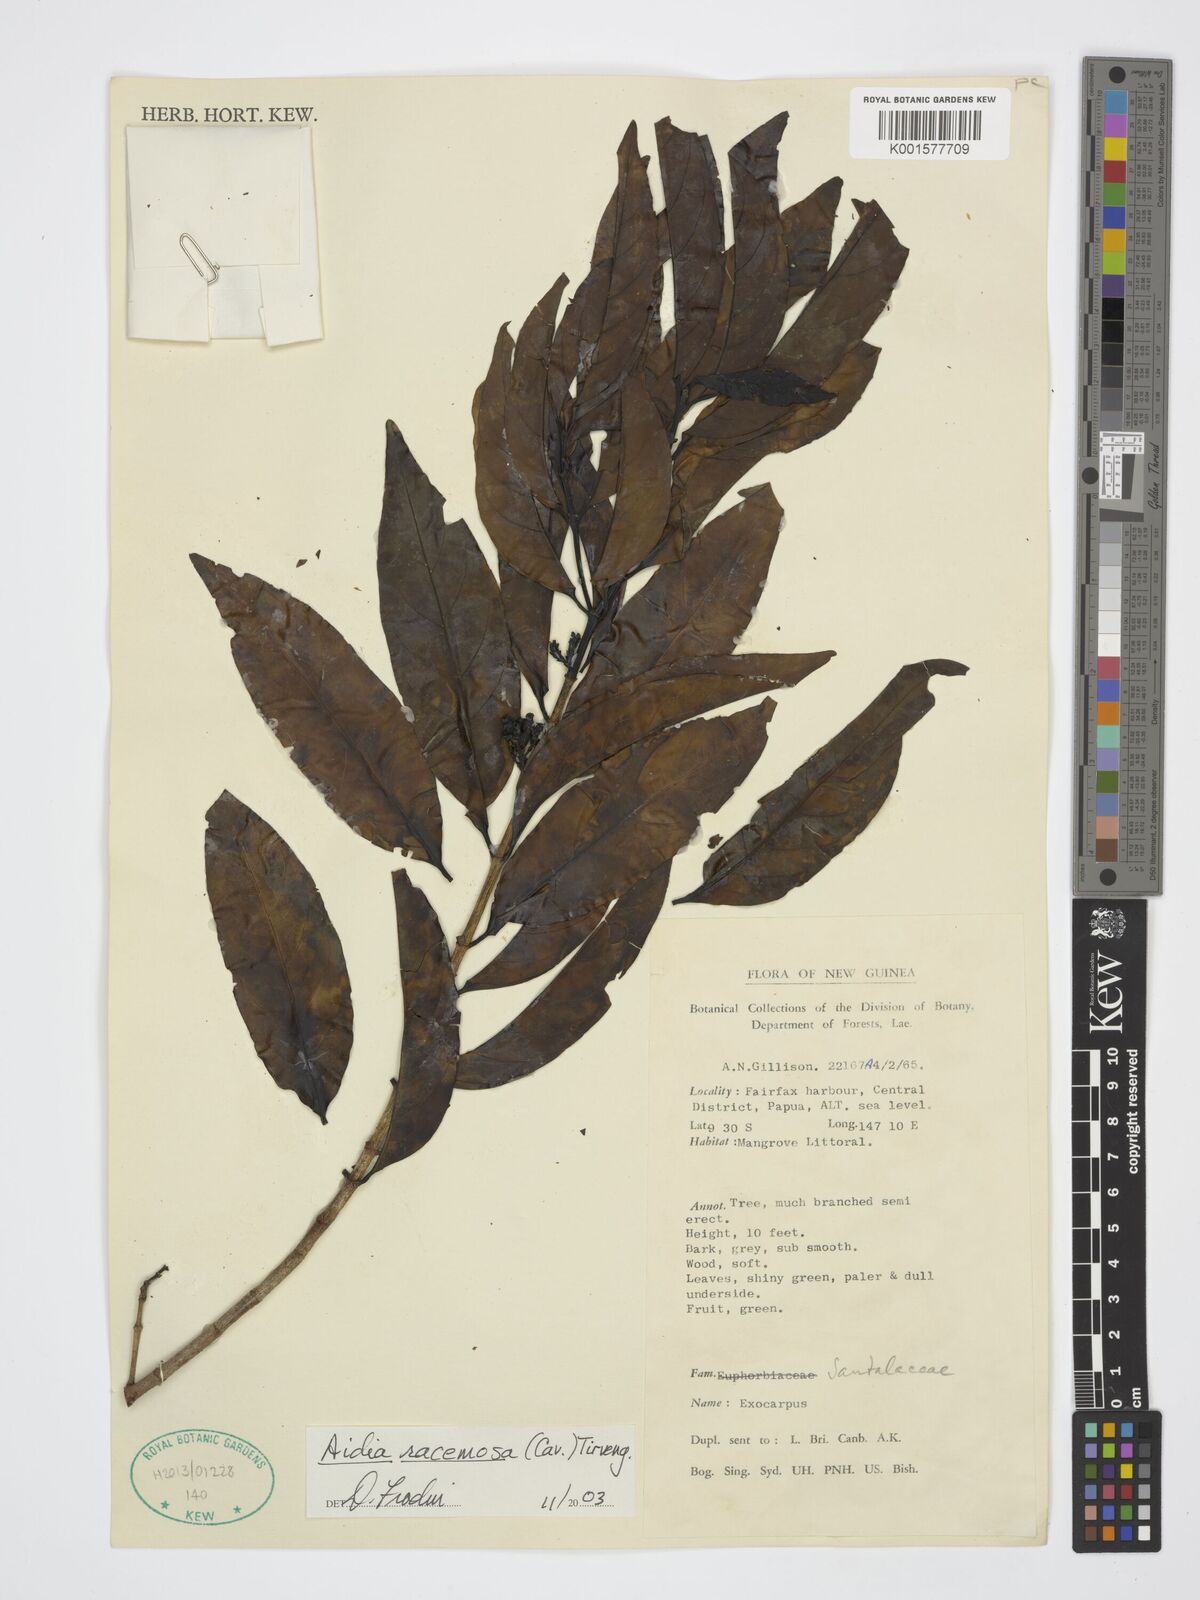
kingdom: Plantae
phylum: Tracheophyta
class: Magnoliopsida
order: Gentianales
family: Rubiaceae
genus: Aidia
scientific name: Aidia racemosa
